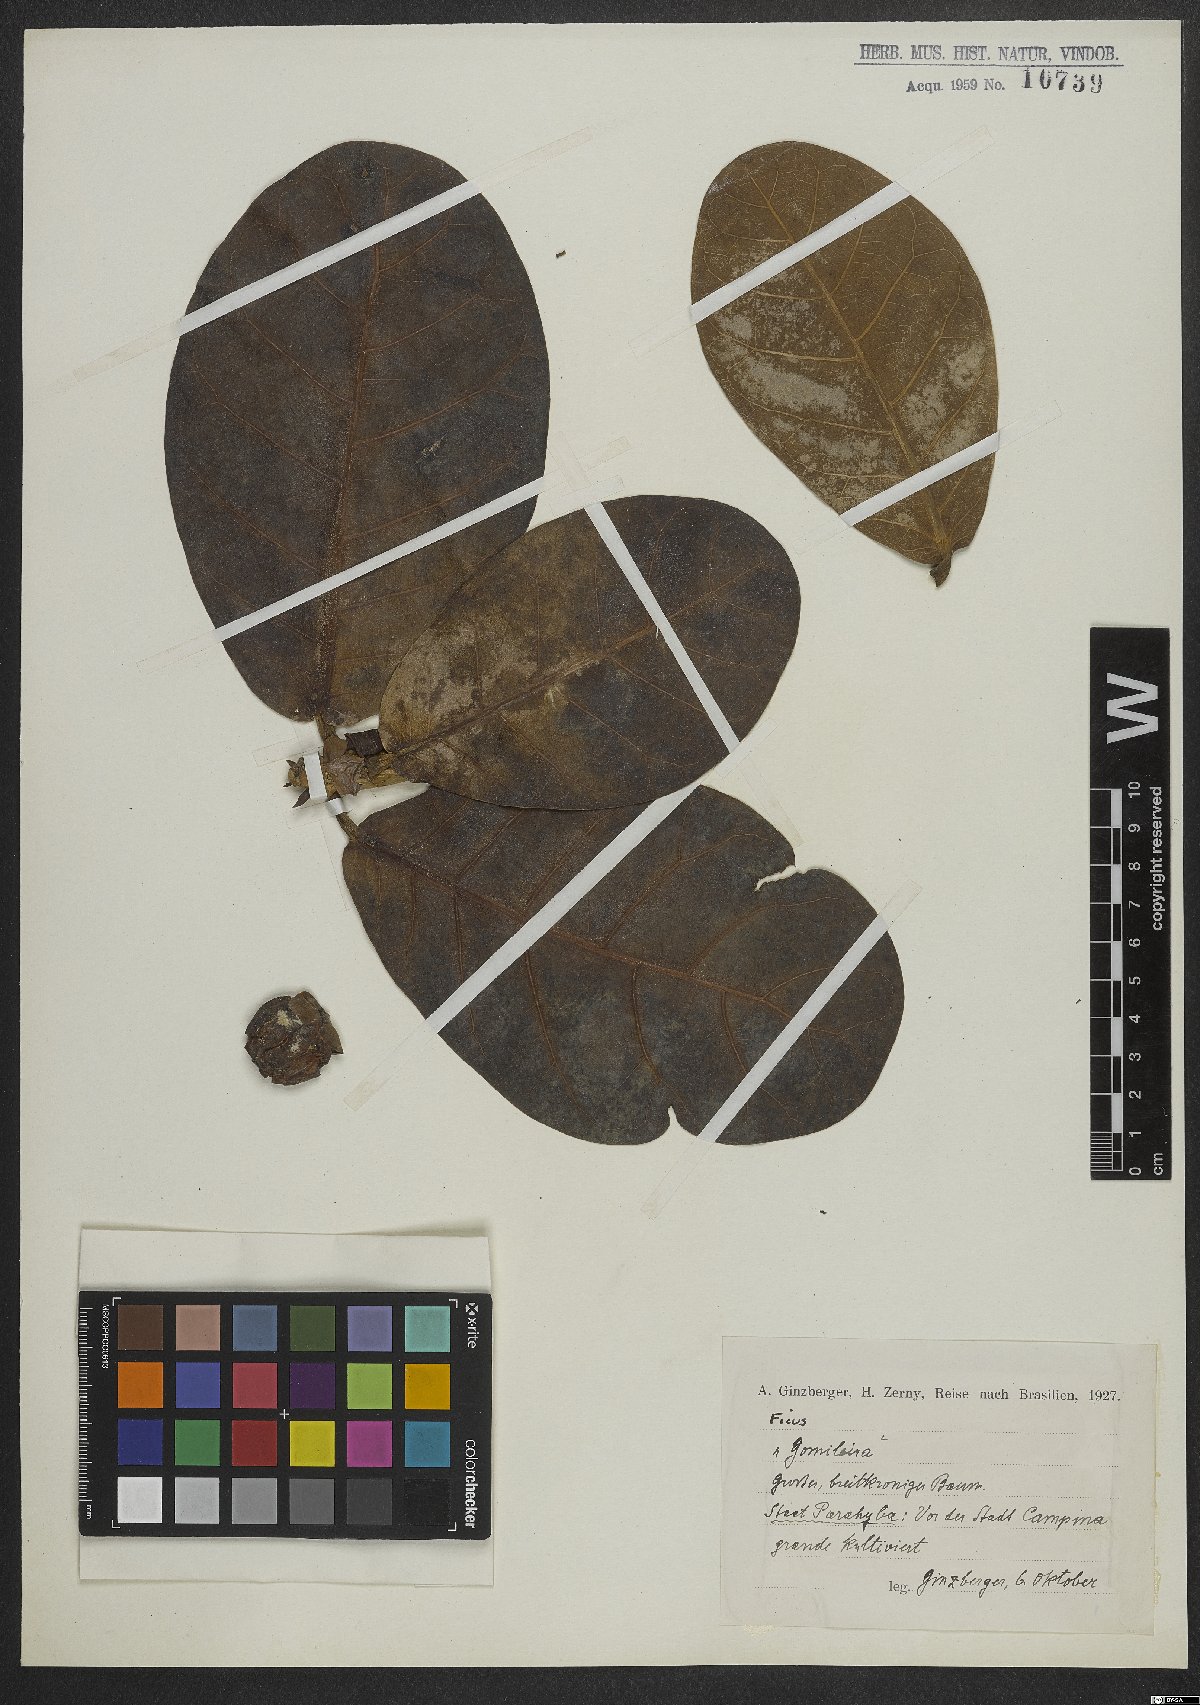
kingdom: Plantae
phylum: Tracheophyta
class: Magnoliopsida
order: Rosales
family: Moraceae
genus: Ficus
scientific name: Ficus
